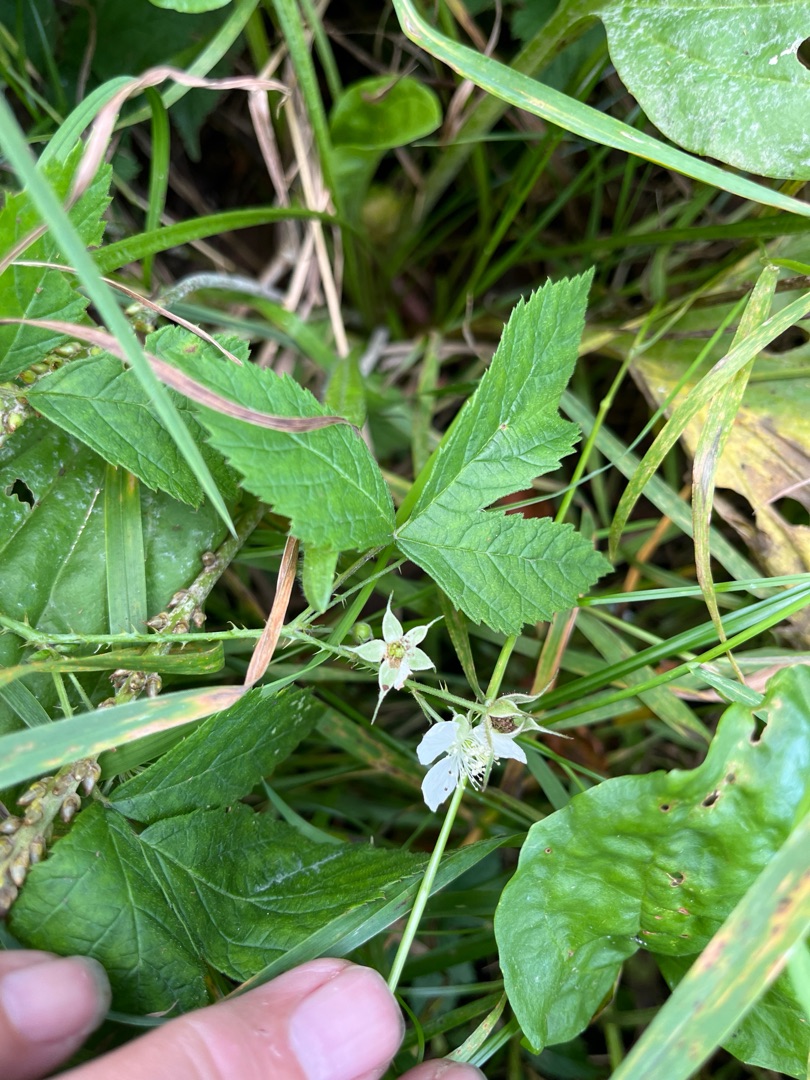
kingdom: Plantae
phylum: Tracheophyta
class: Magnoliopsida
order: Rosales
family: Rosaceae
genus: Rubus
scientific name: Rubus caesius
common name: Korbær
